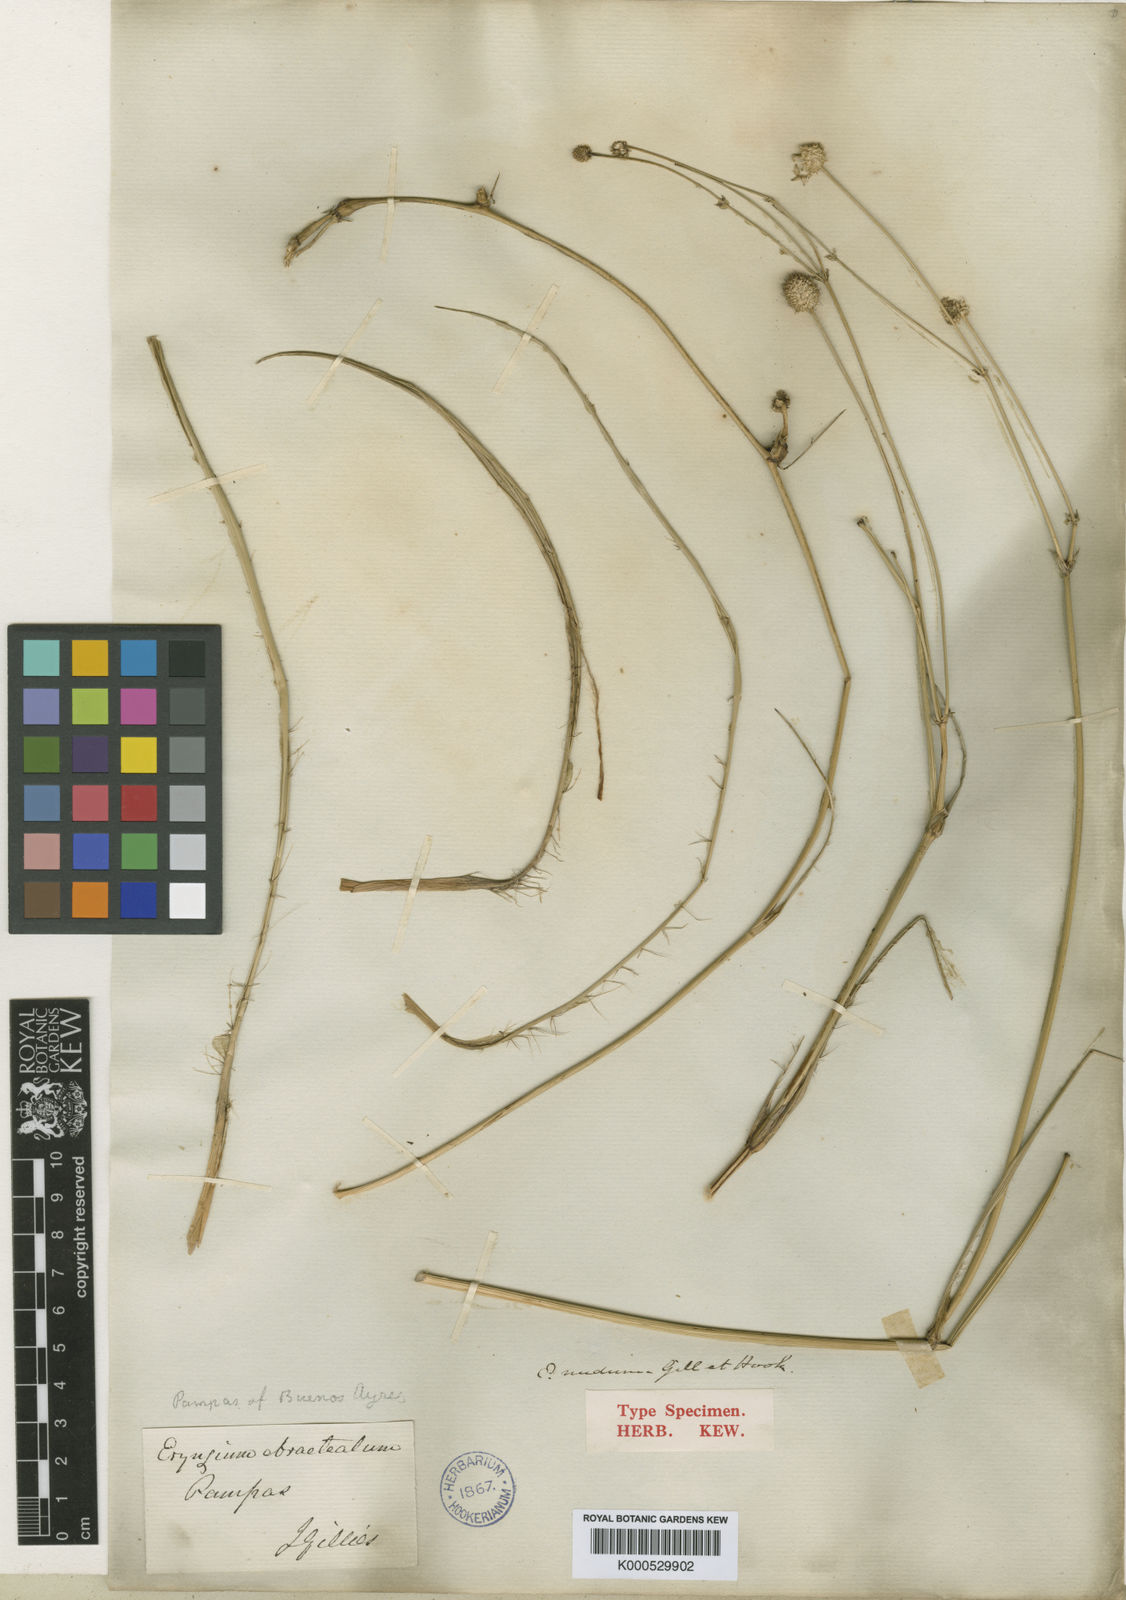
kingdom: Plantae
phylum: Tracheophyta
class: Magnoliopsida
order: Apiales
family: Apiaceae
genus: Eryngium
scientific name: Eryngium luzulifolium
